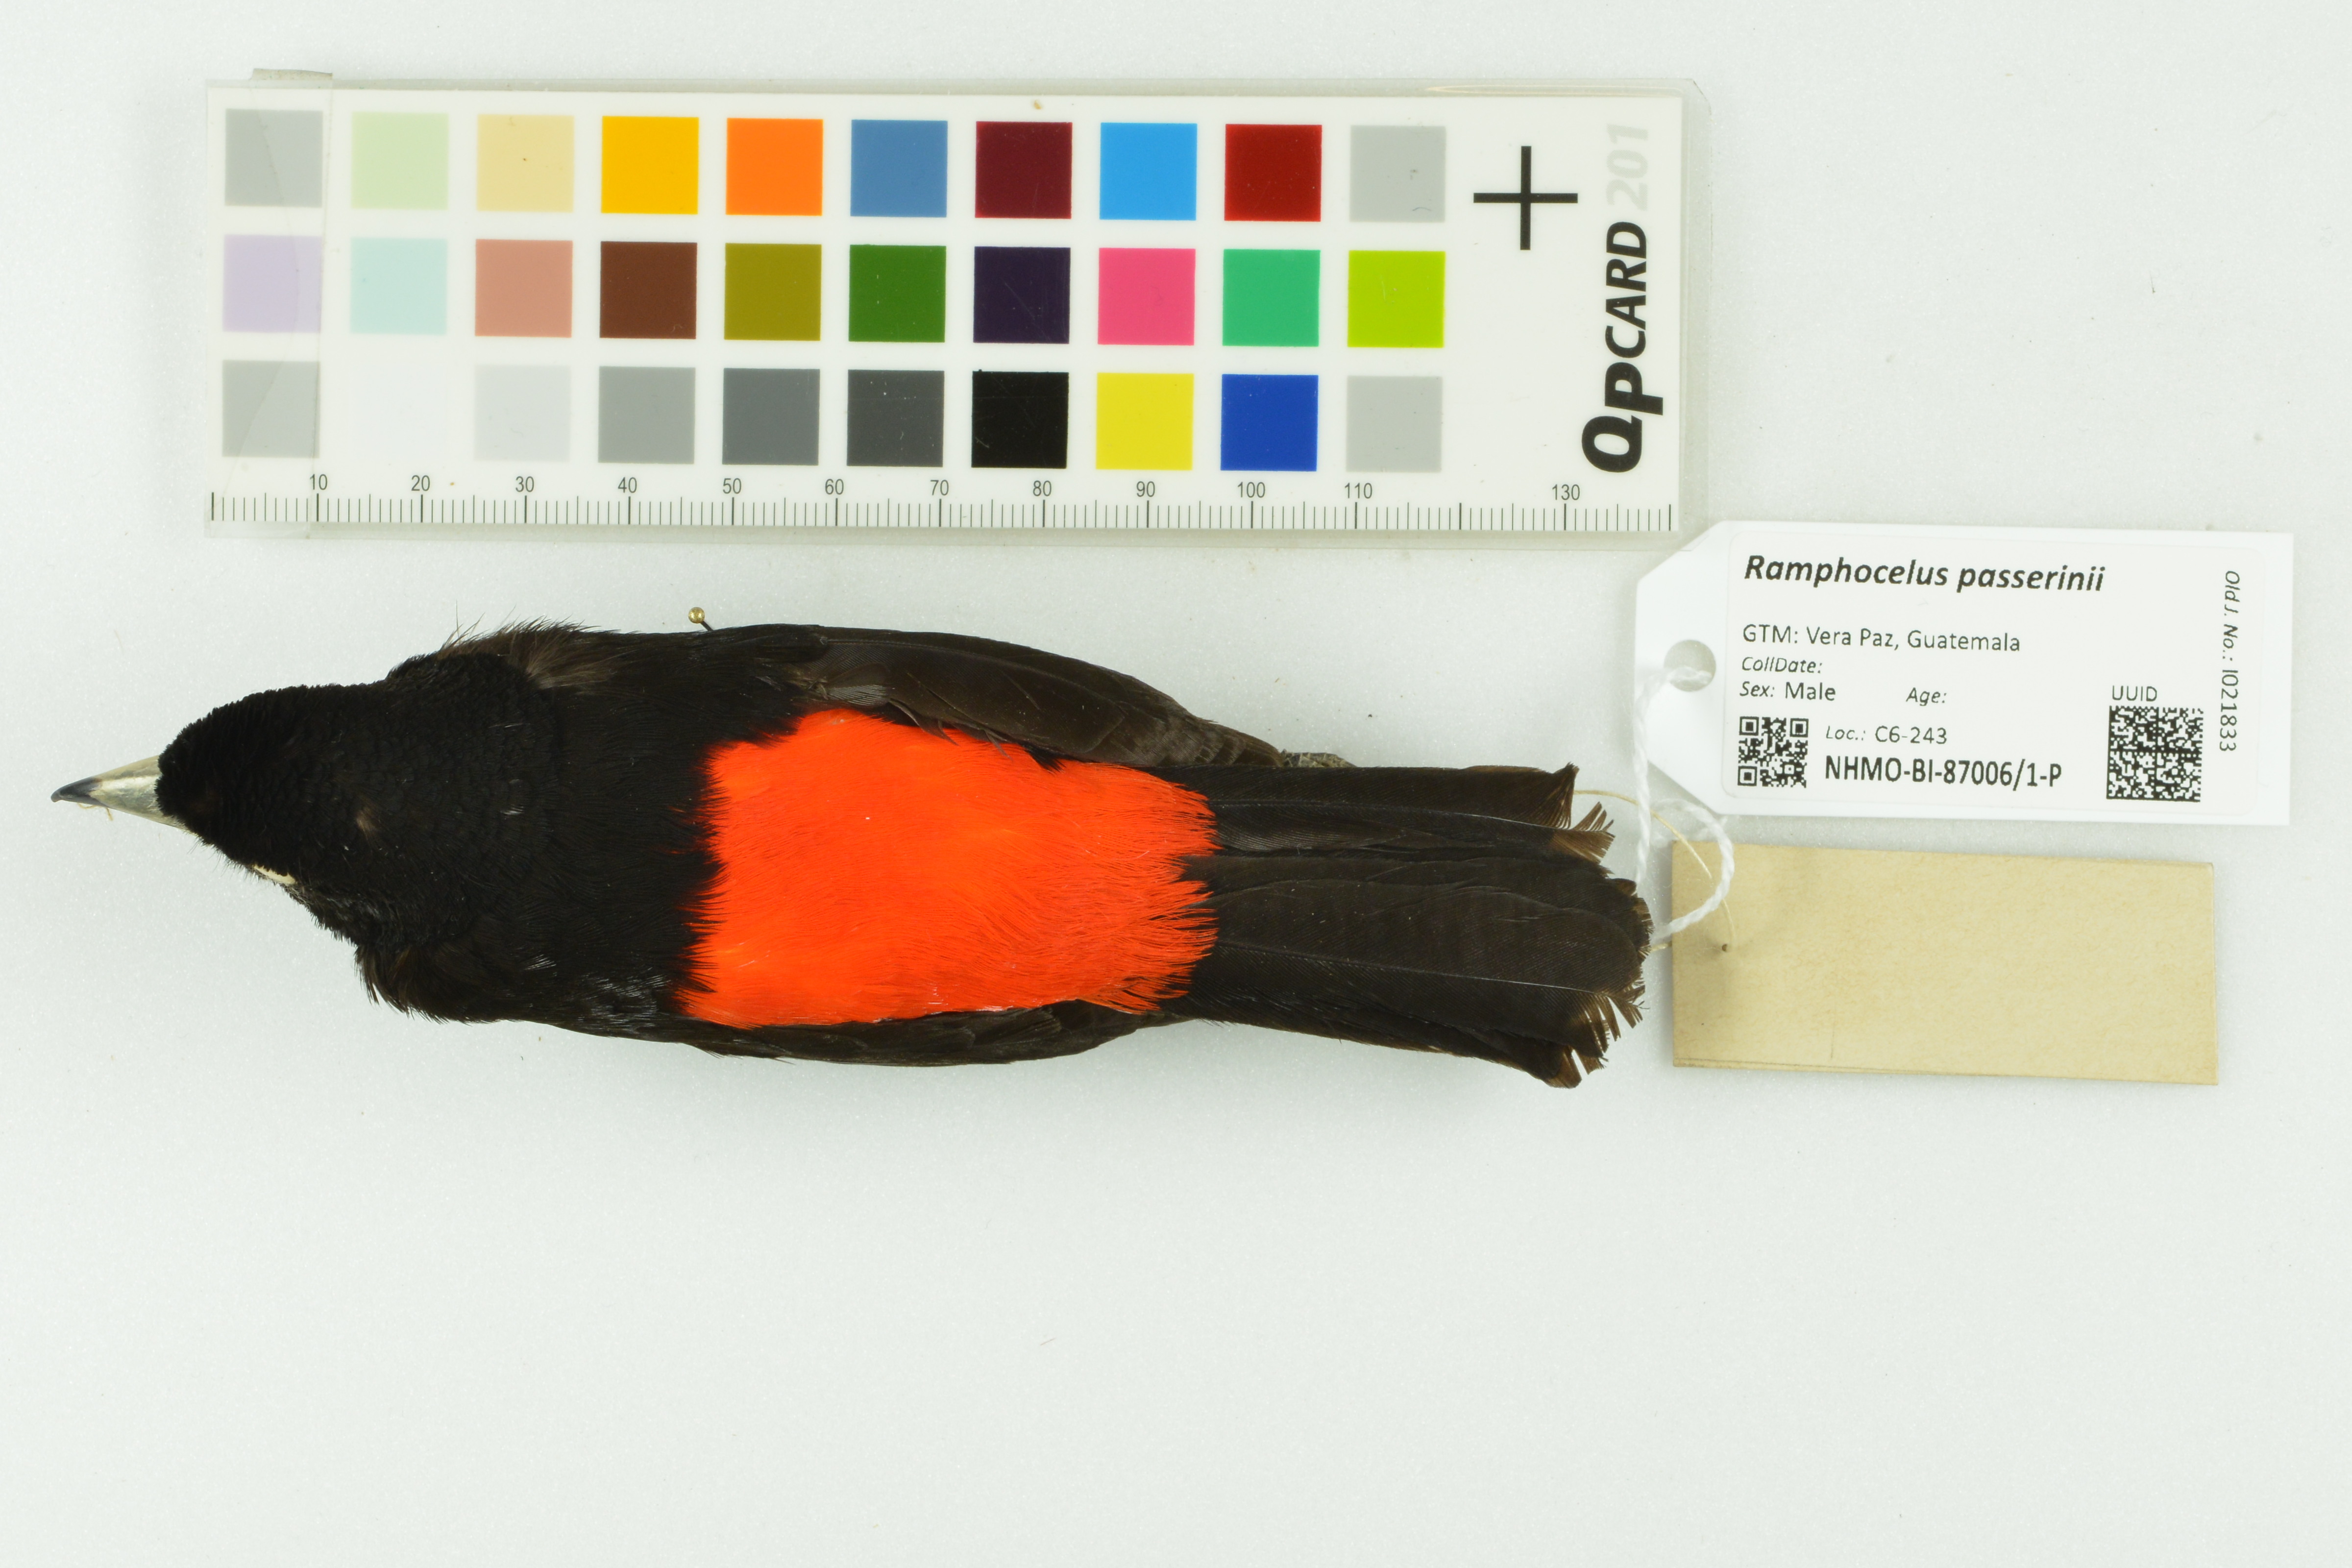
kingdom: Animalia
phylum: Chordata
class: Aves
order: Passeriformes
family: Thraupidae
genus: Ramphocelus
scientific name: Ramphocelus passerinii
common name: Passerini's tanager
